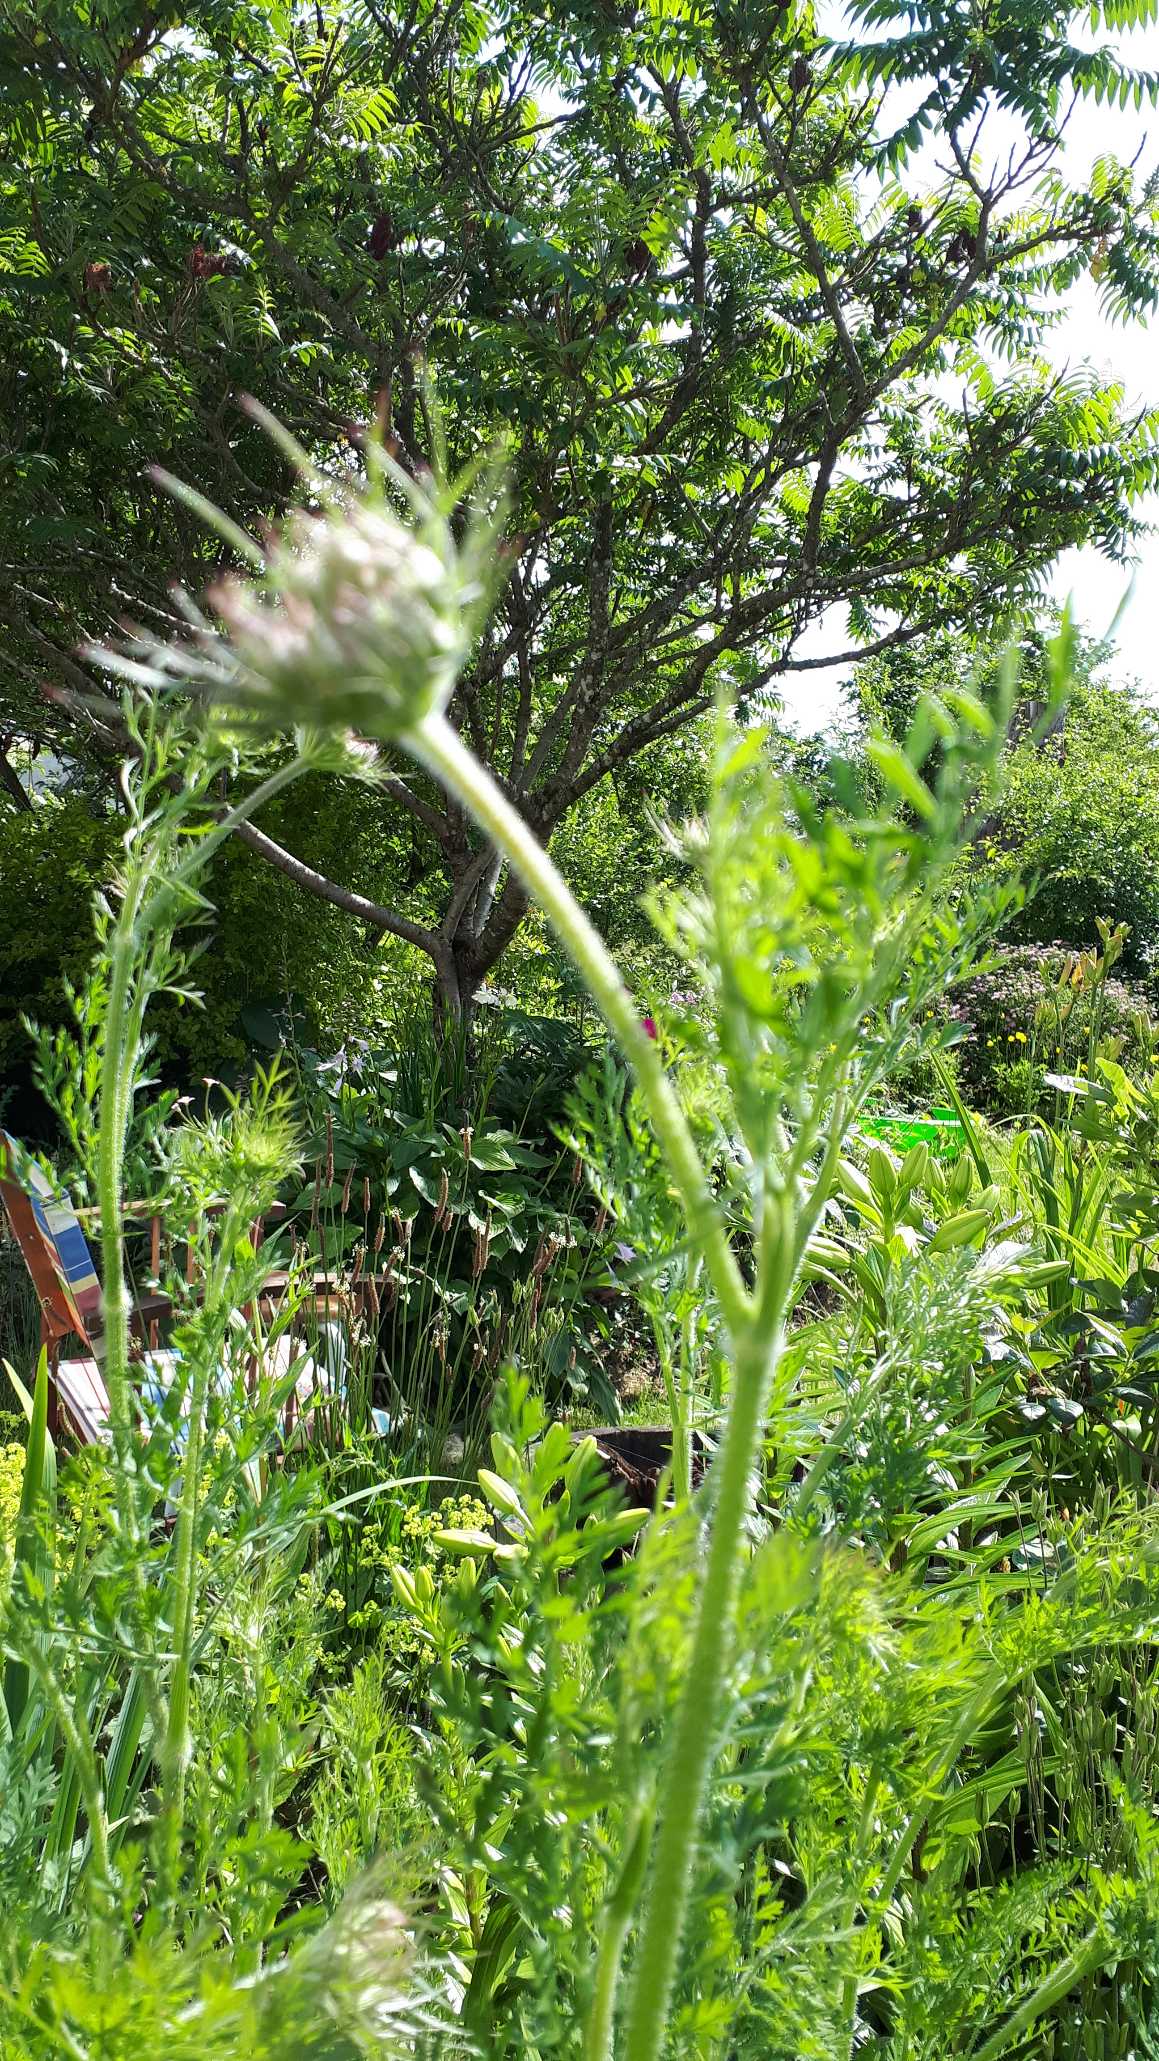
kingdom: Plantae
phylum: Tracheophyta
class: Magnoliopsida
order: Apiales
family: Apiaceae
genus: Daucus
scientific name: Daucus carota
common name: Vild gulerod
